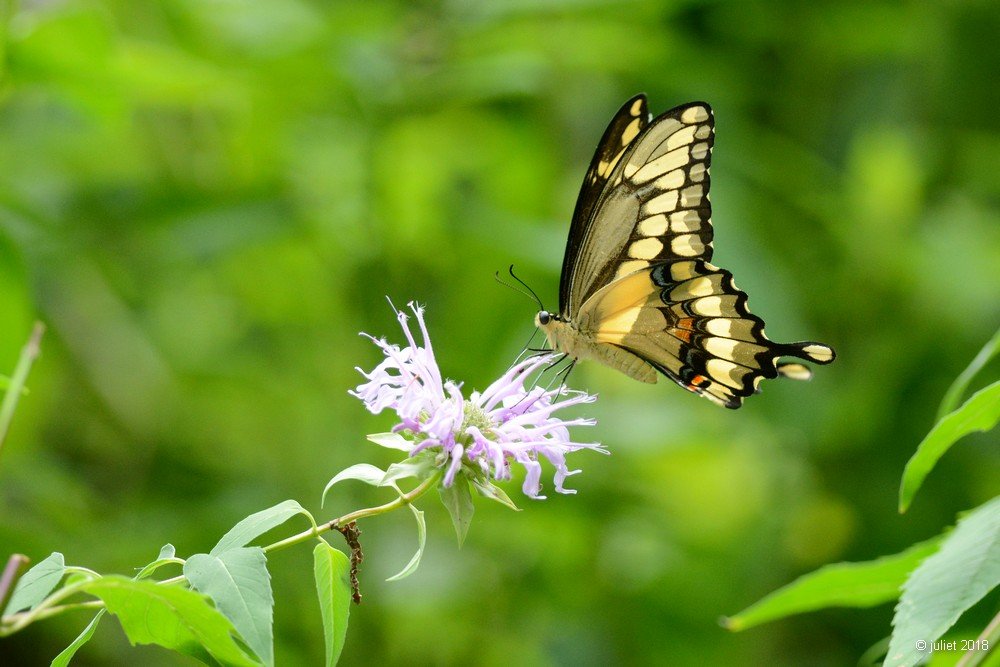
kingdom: Animalia
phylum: Arthropoda
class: Insecta
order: Lepidoptera
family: Papilionidae
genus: Papilio
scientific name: Papilio cresphontes
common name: Eastern Giant Swallowtail
